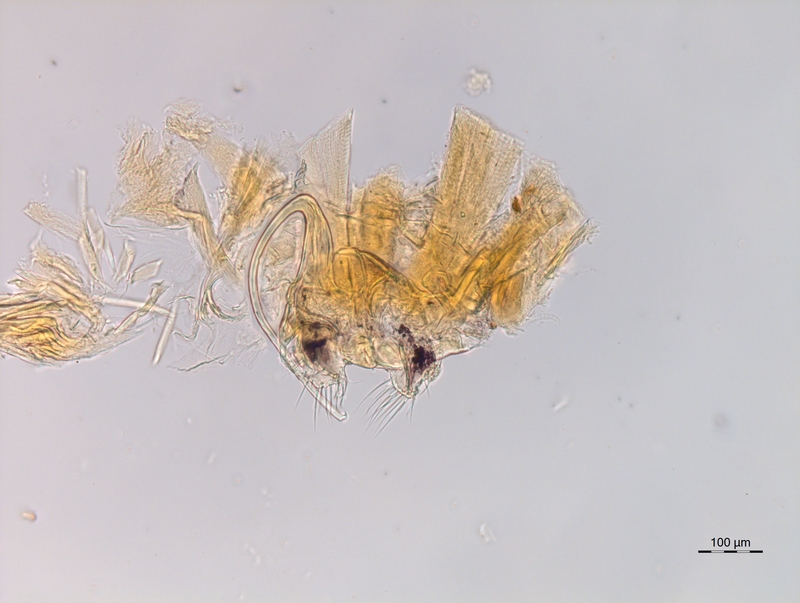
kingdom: Animalia
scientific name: Animalia
